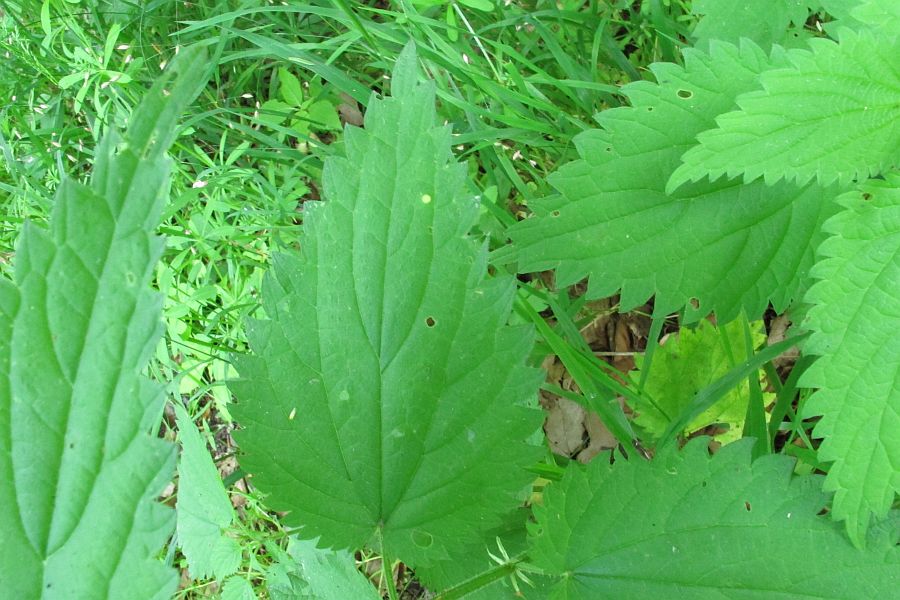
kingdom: Fungi
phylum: Basidiomycota
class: Pucciniomycetes
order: Pucciniales
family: Pucciniaceae
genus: Puccinia
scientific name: Puccinia urticata
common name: nældegalle-tvecellerust
